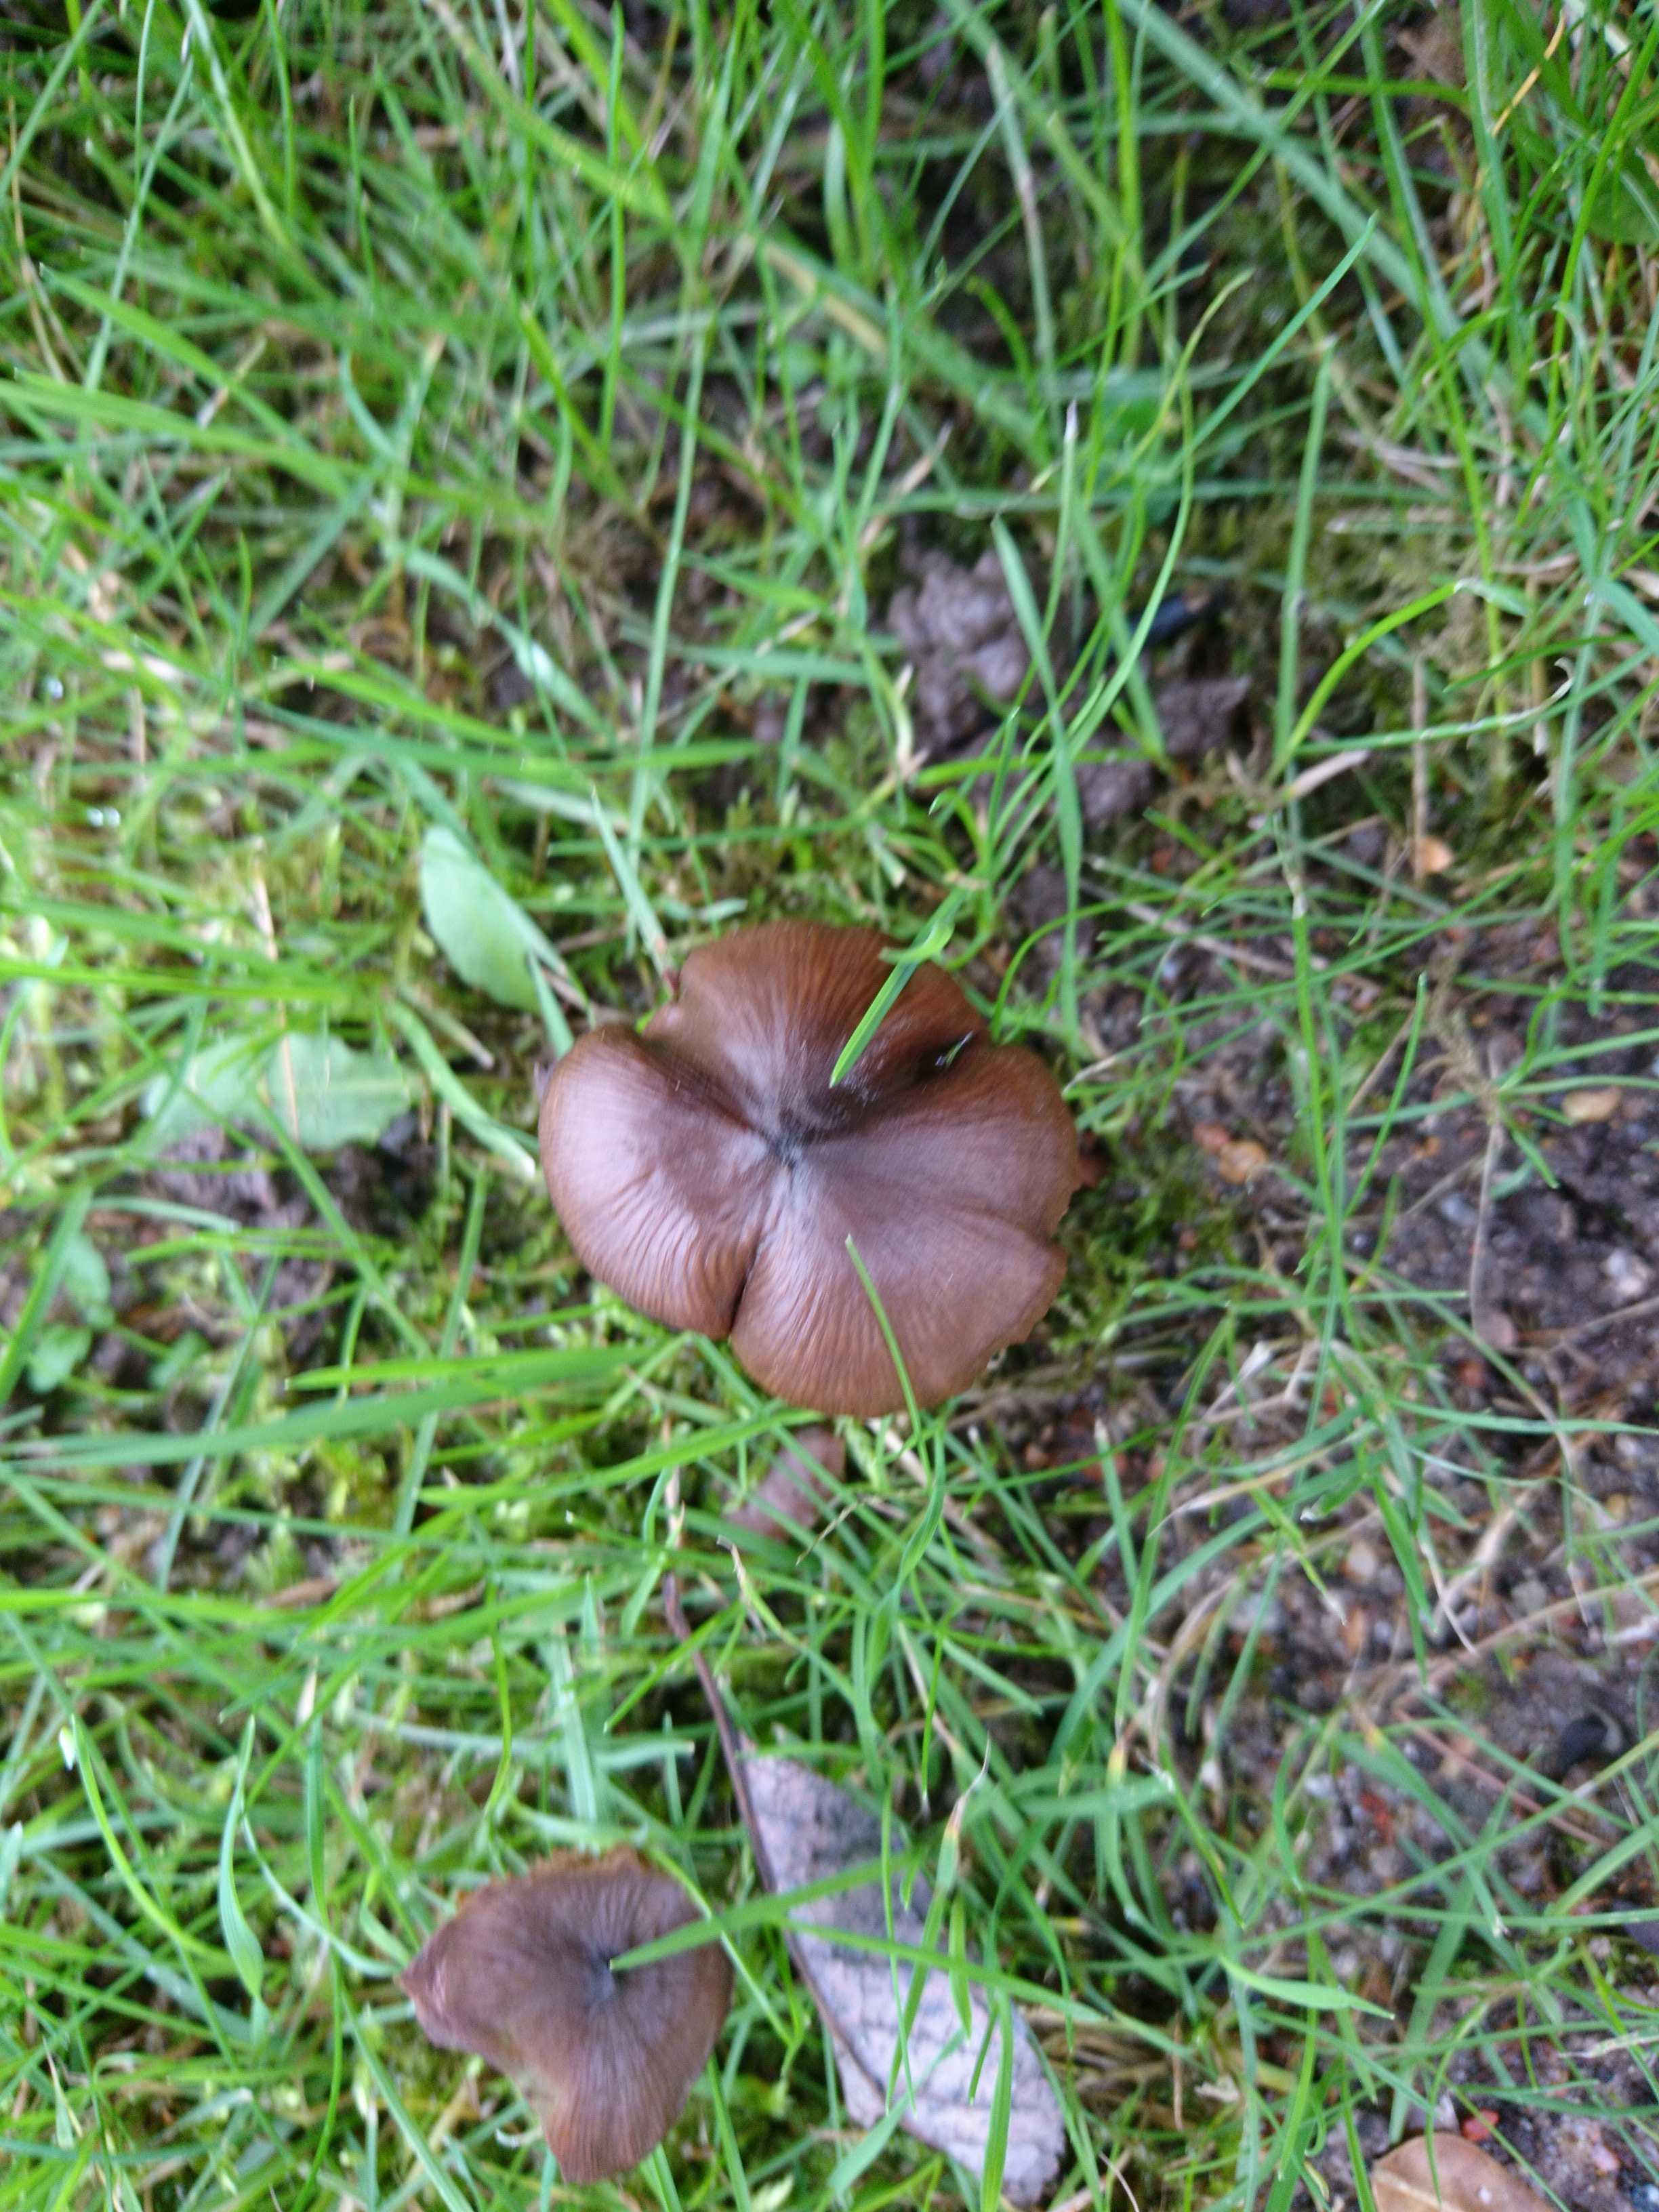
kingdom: Fungi
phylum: Basidiomycota
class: Agaricomycetes
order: Agaricales
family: Entolomataceae
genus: Entoloma
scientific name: Entoloma
